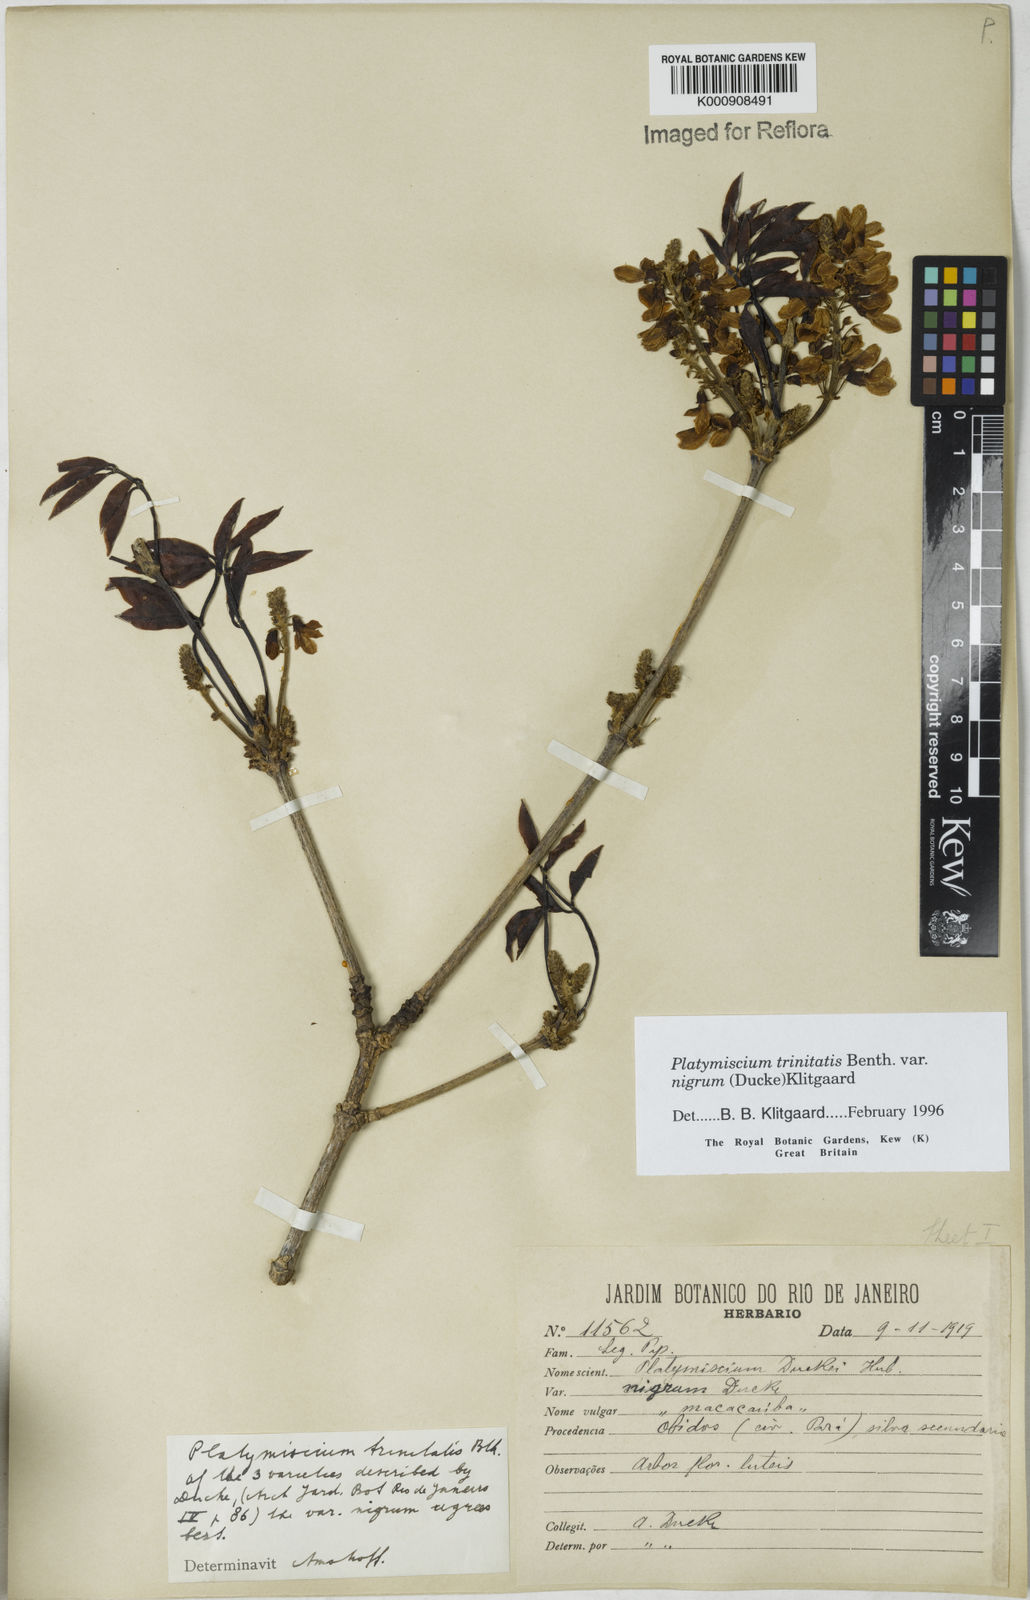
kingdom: Plantae
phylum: Tracheophyta
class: Magnoliopsida
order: Fabales
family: Fabaceae
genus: Platymiscium
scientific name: Platymiscium trinitatis
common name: Trinidad macawood
